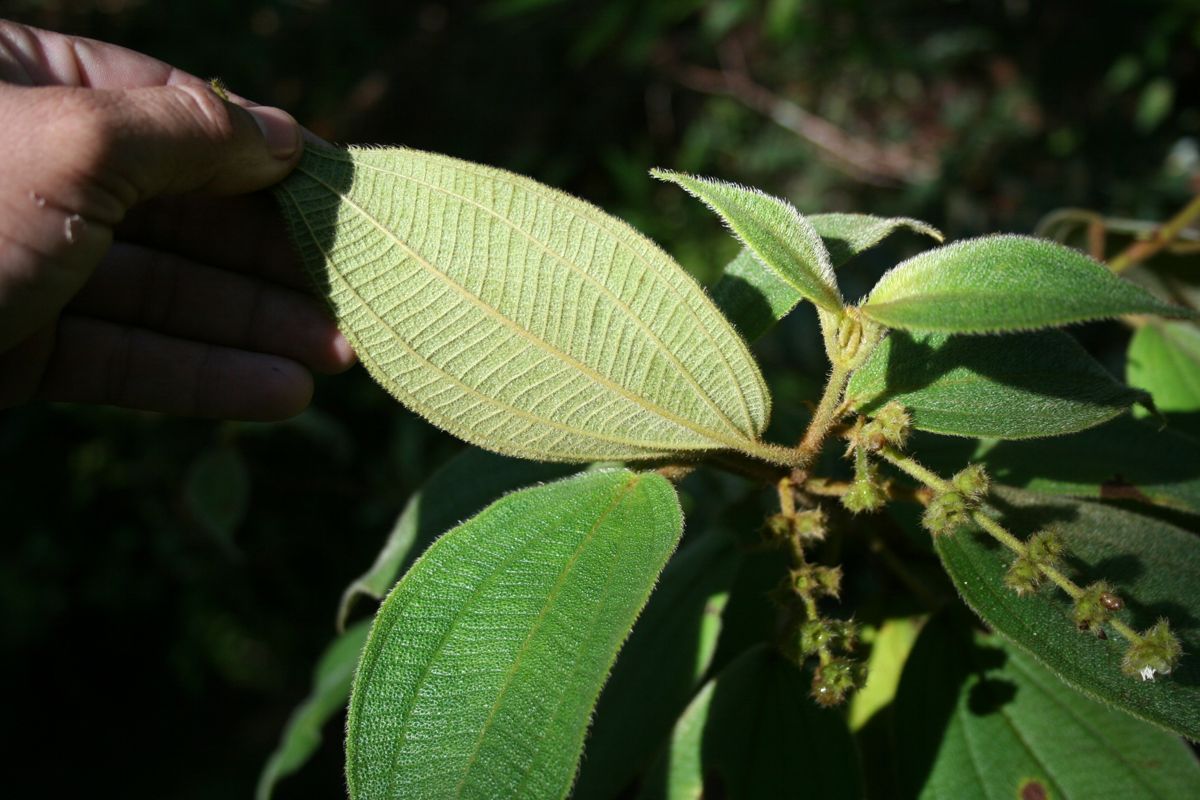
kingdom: Plantae
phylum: Tracheophyta
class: Magnoliopsida
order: Myrtales
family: Melastomataceae
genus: Miconia
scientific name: Miconia dependens
